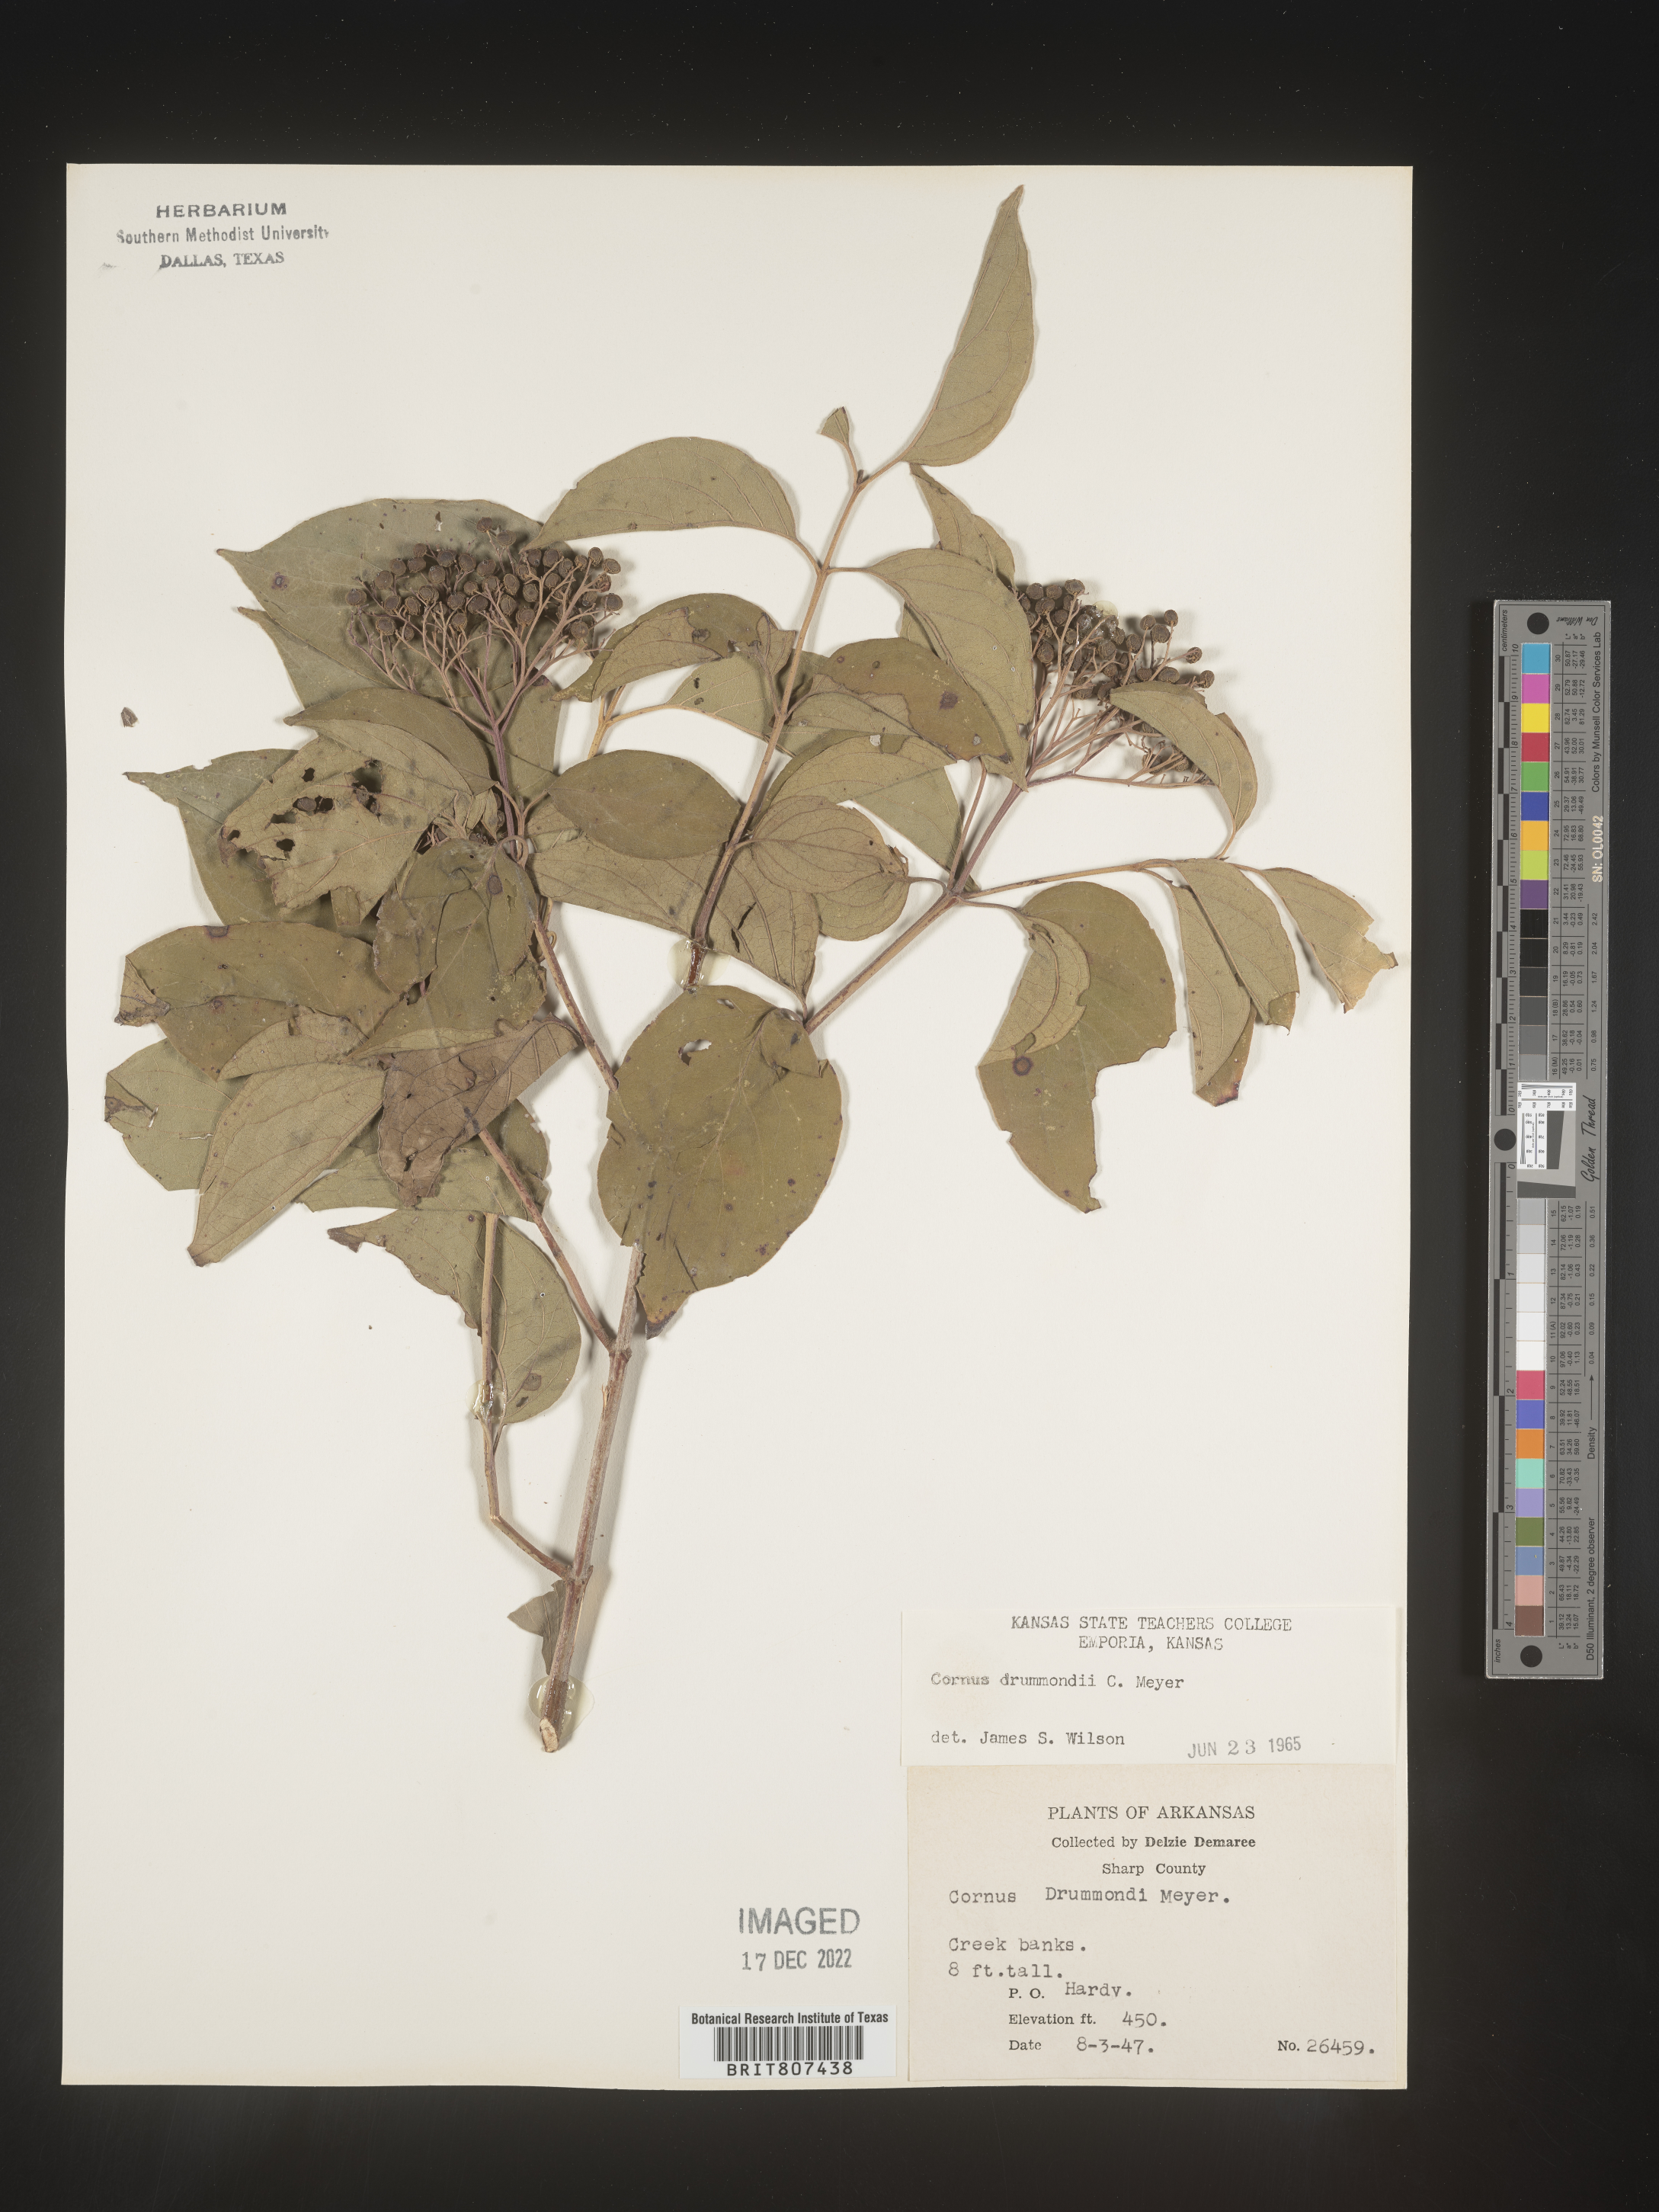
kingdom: Plantae
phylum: Tracheophyta
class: Magnoliopsida
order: Cornales
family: Cornaceae
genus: Cornus
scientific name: Cornus drummondii
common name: Rough-leaf dogwood
